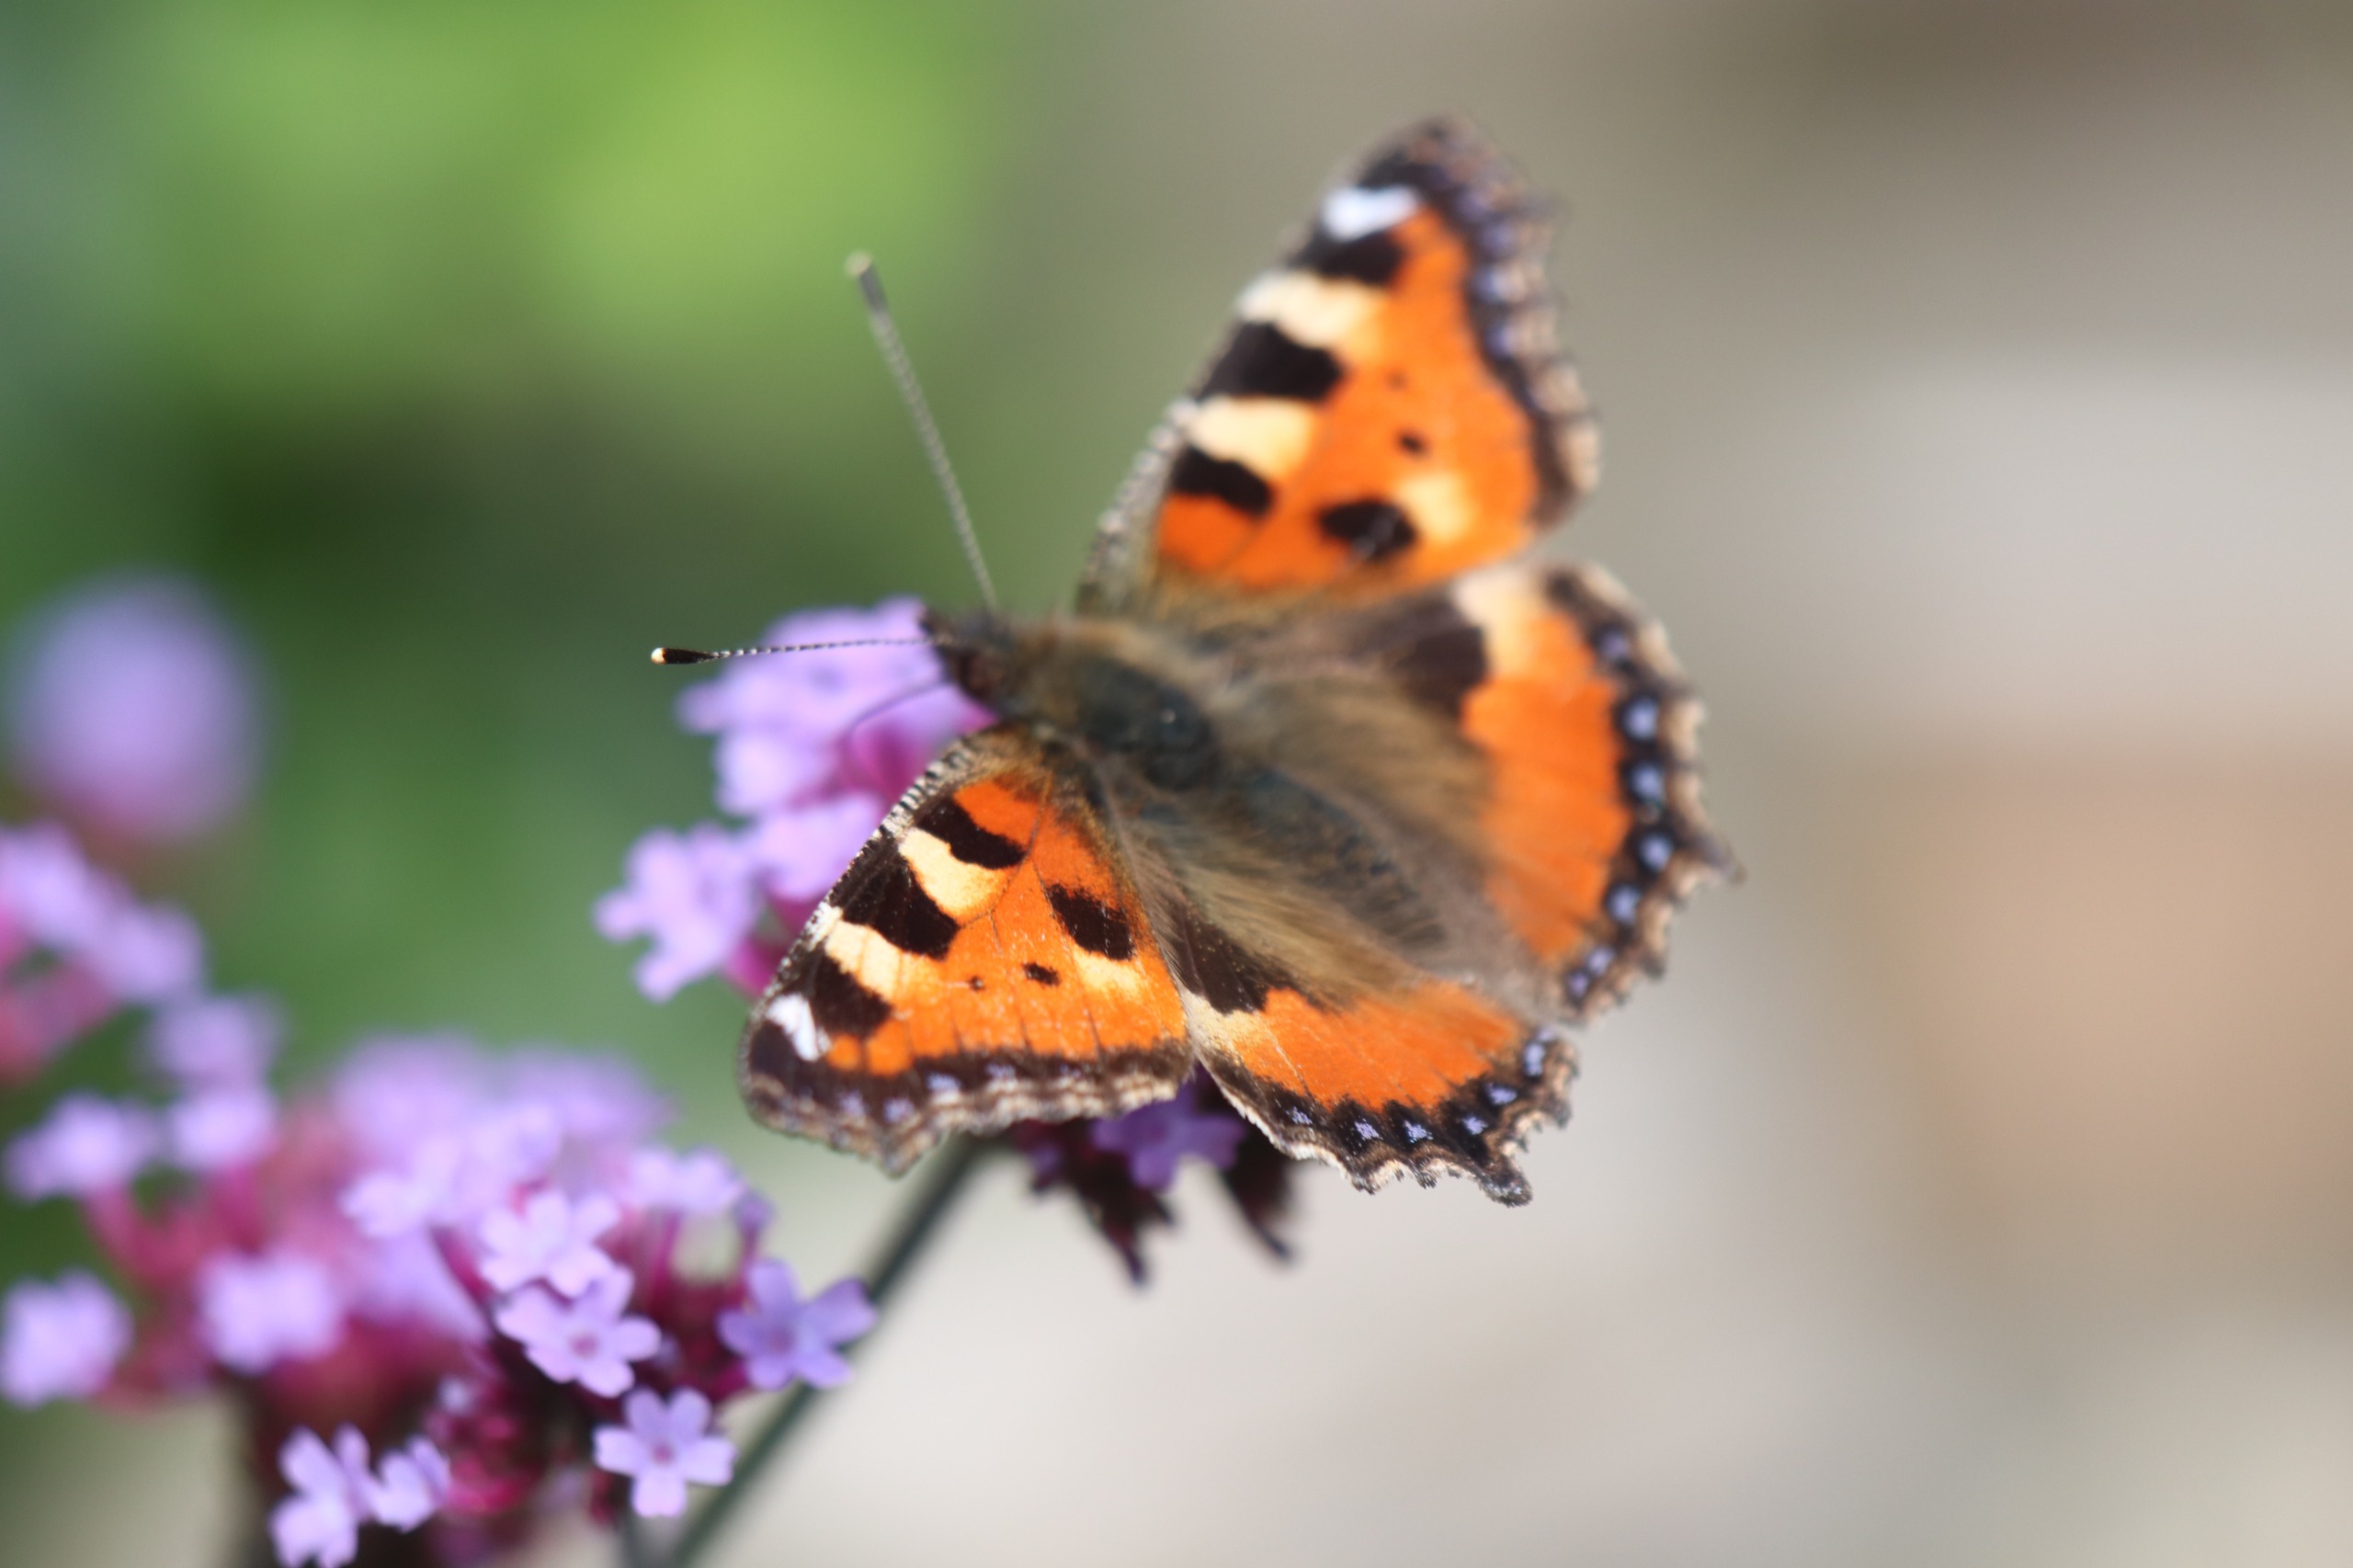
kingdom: Animalia
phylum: Arthropoda
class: Insecta
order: Lepidoptera
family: Nymphalidae
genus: Aglais
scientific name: Aglais urticae
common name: Nældens takvinge
